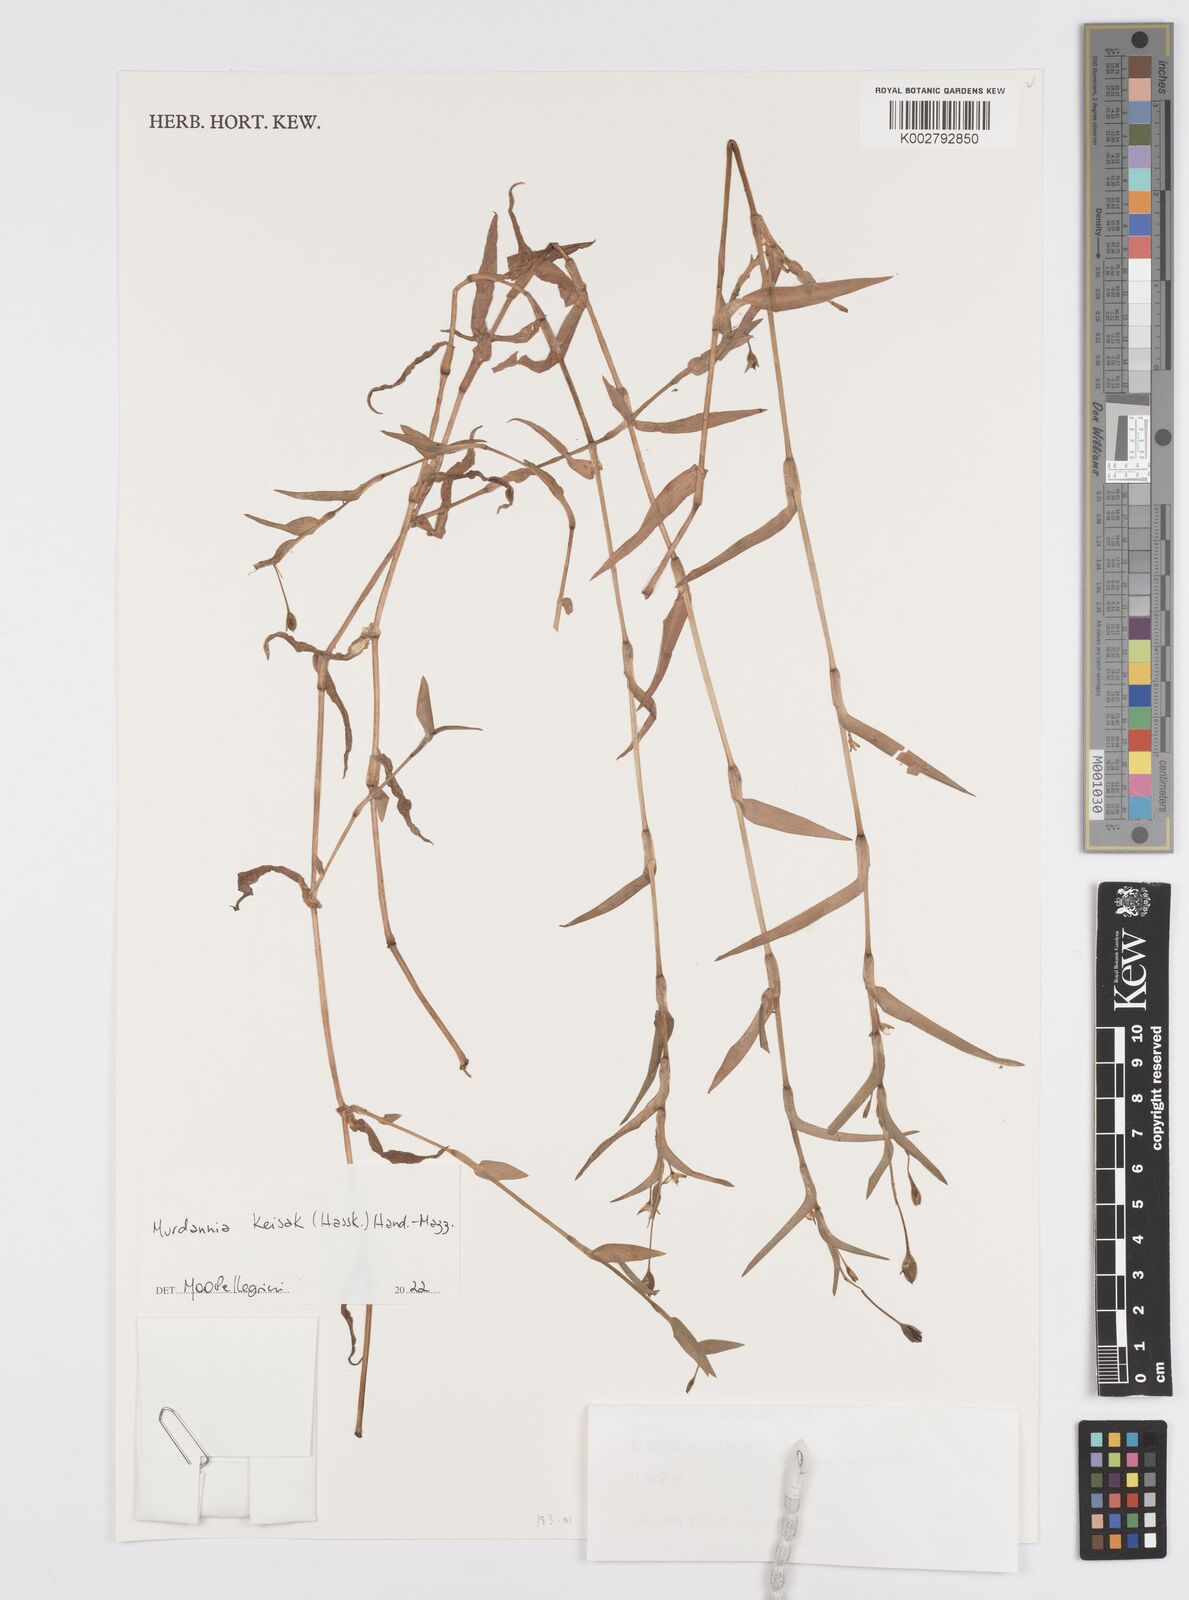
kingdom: Plantae
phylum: Tracheophyta
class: Liliopsida
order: Commelinales
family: Commelinaceae
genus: Murdannia
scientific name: Murdannia keisak
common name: Wartremoving herb
